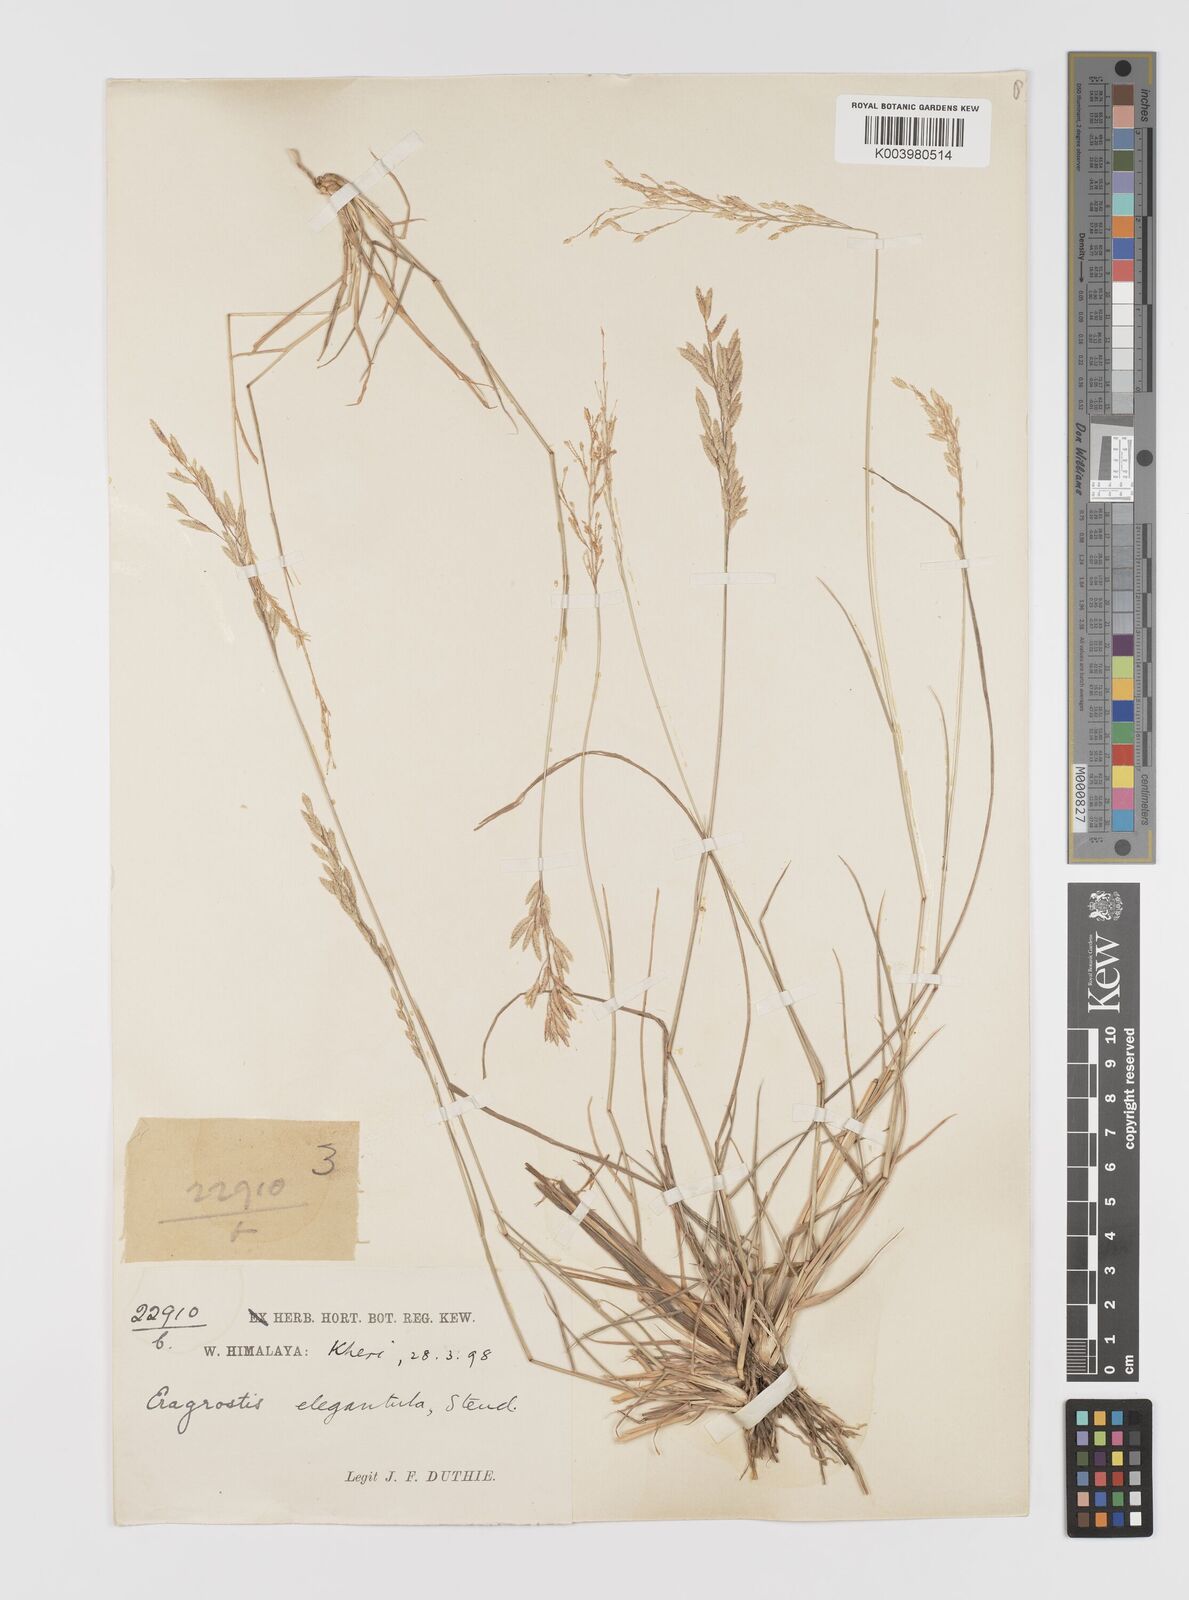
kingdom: Plantae
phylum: Tracheophyta
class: Liliopsida
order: Poales
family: Poaceae
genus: Eragrostis
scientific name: Eragrostis atrovirens
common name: Thalia lovegrass
